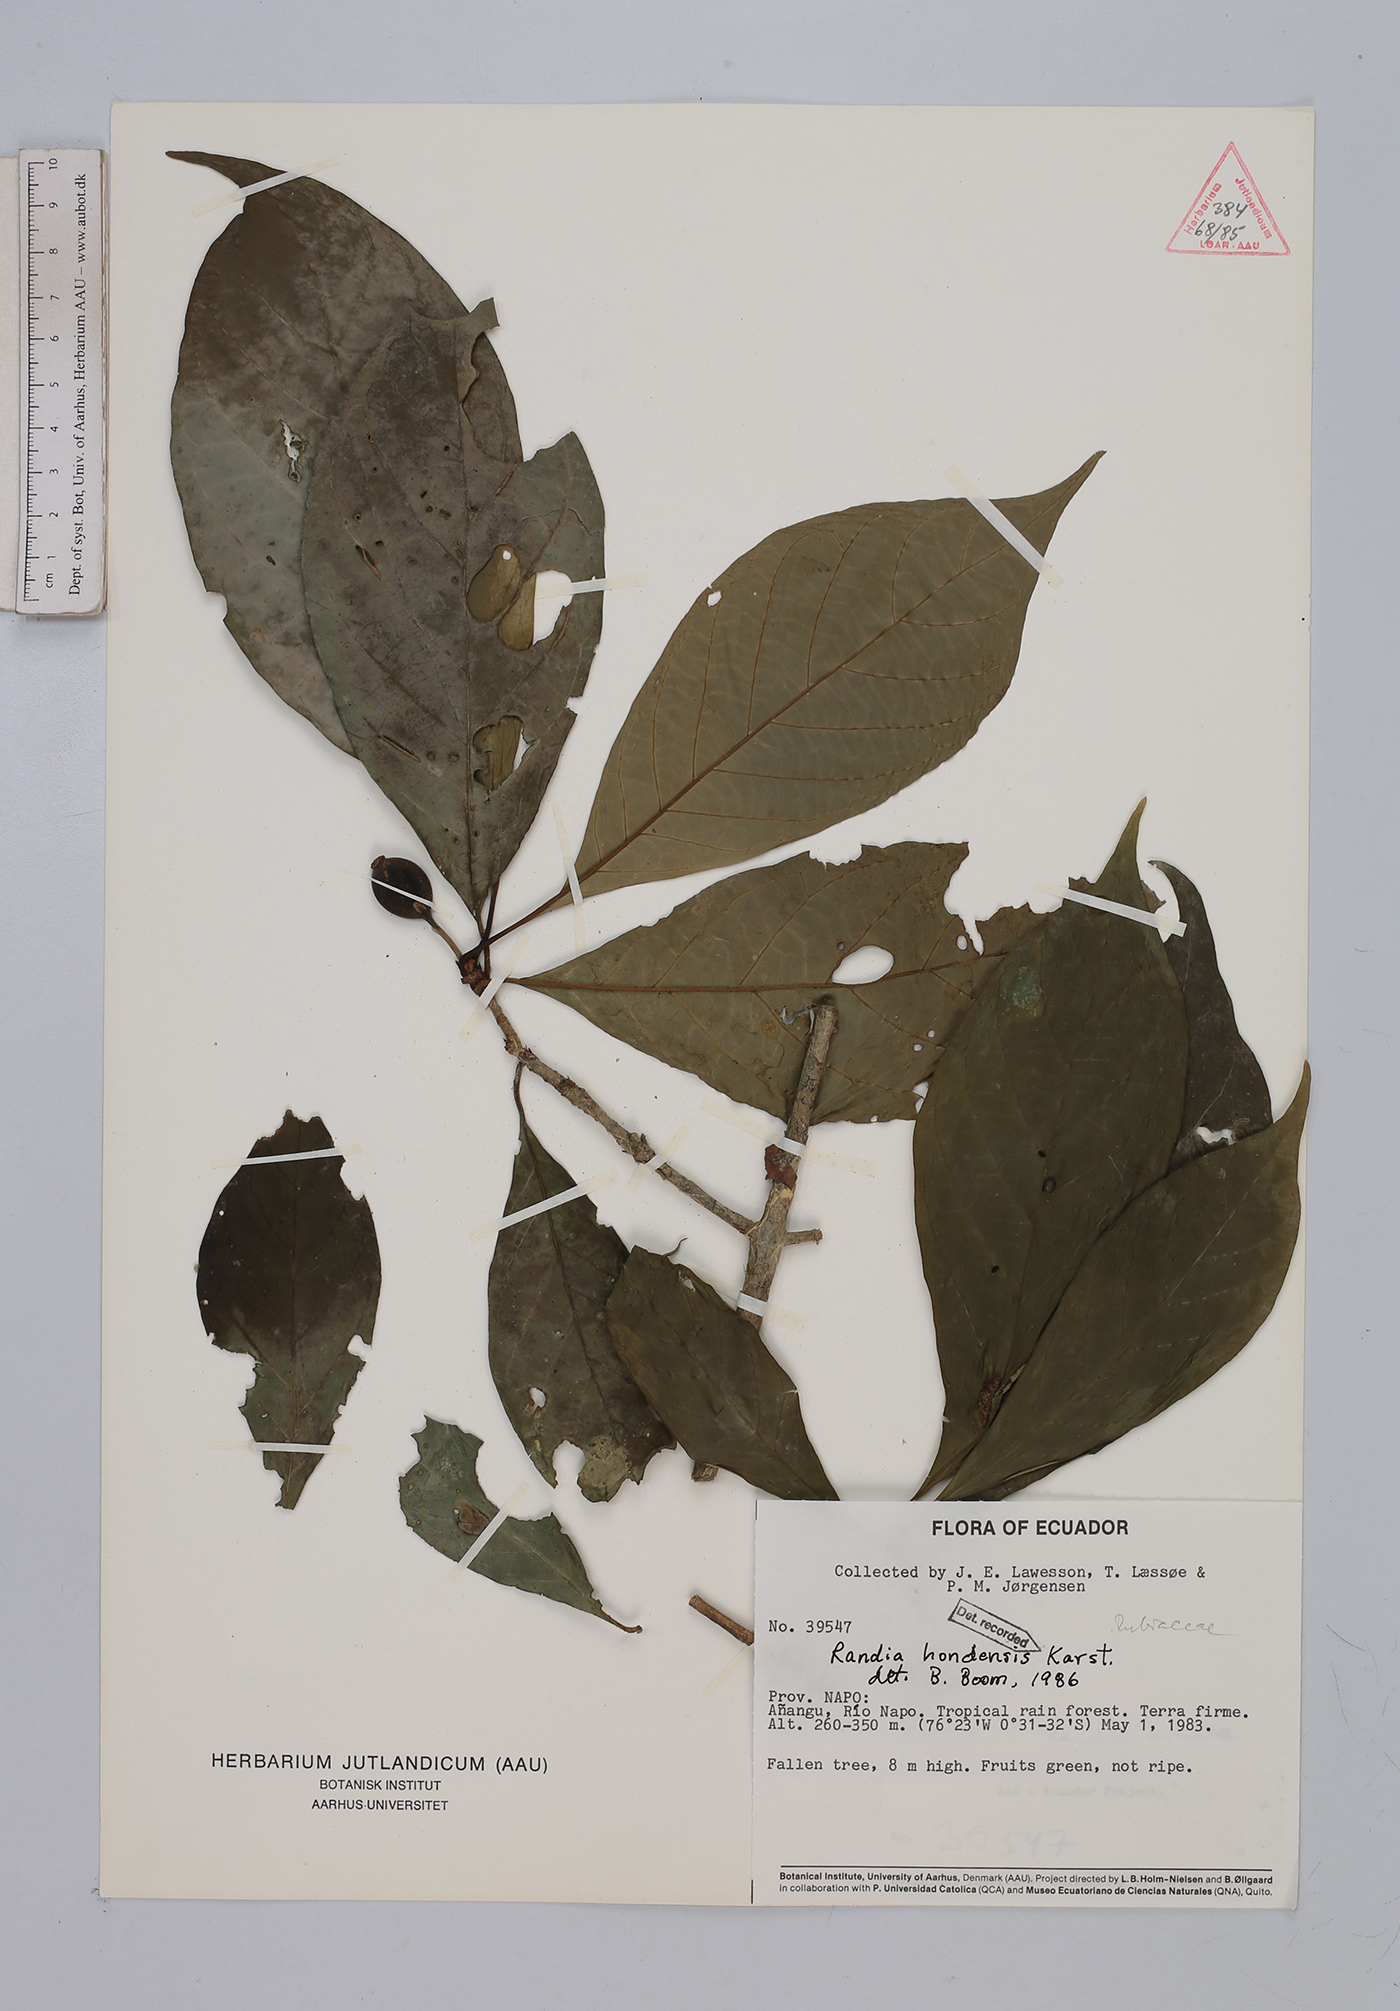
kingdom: Plantae
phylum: Tracheophyta
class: Magnoliopsida
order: Gentianales
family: Rubiaceae
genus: Randia
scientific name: Randia hondensis
